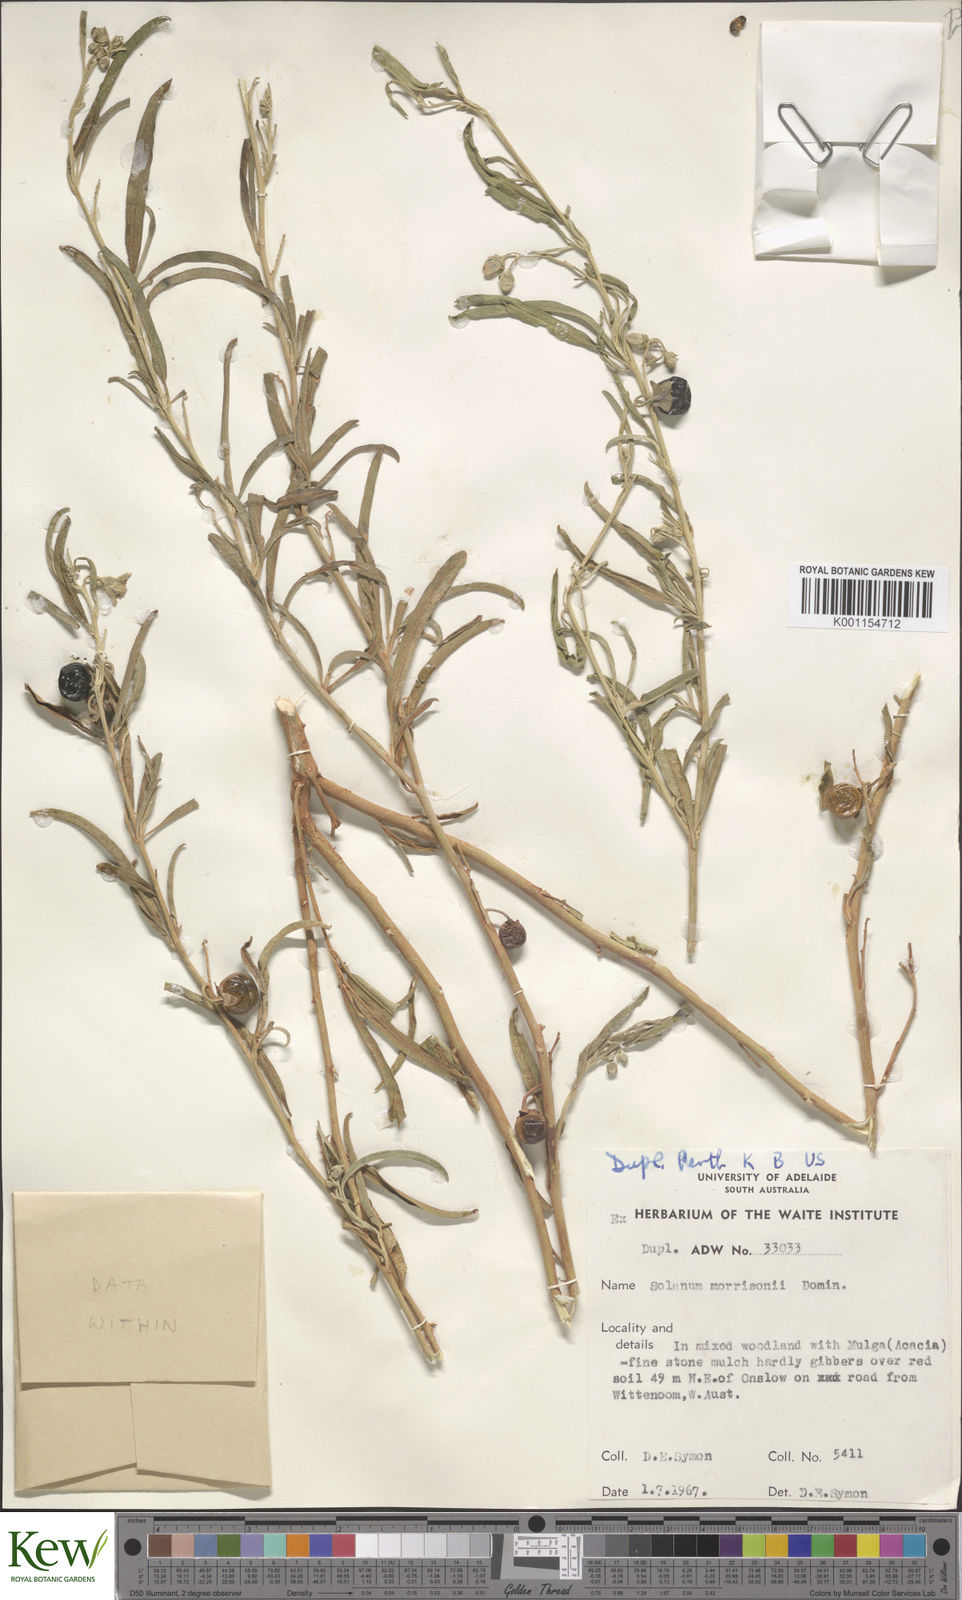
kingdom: Plantae
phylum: Tracheophyta
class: Magnoliopsida
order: Solanales
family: Solanaceae
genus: Solanum
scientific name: Solanum sturtianum
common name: Thargomindah nightshade
